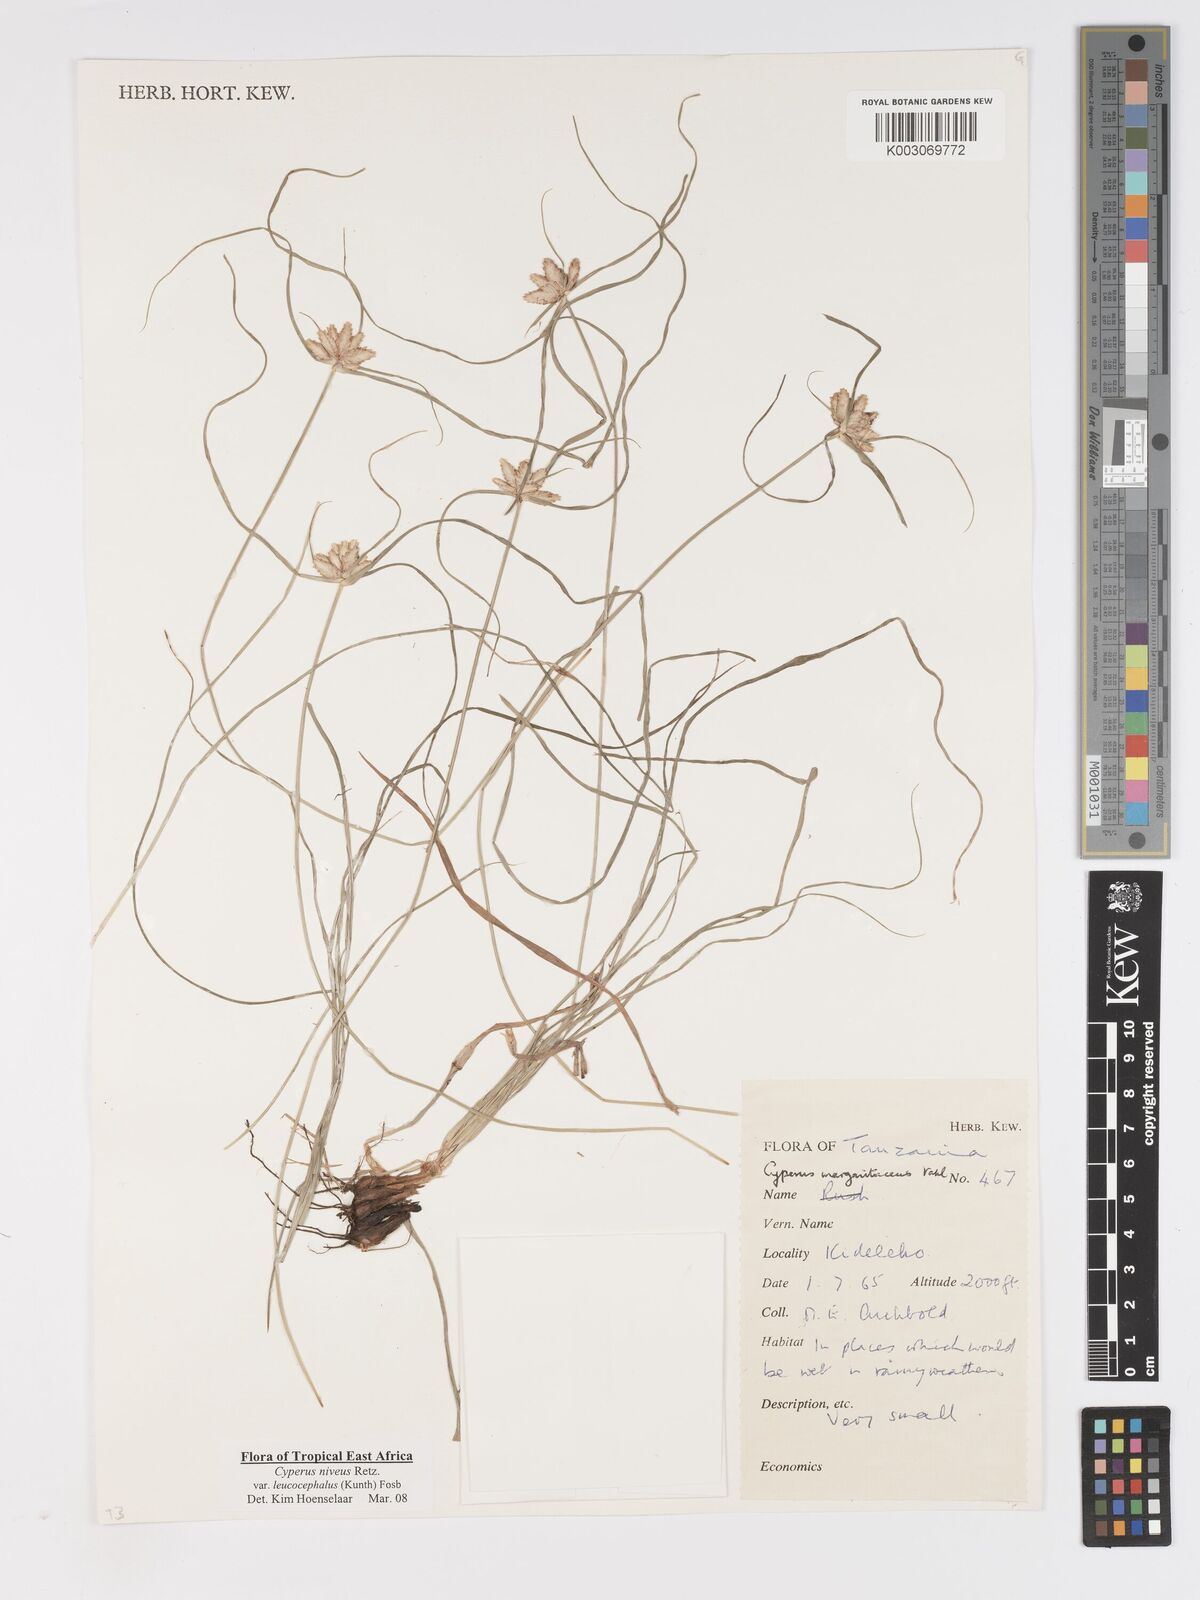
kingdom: Plantae
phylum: Tracheophyta
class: Liliopsida
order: Poales
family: Cyperaceae
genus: Cyperus
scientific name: Cyperus niveus
